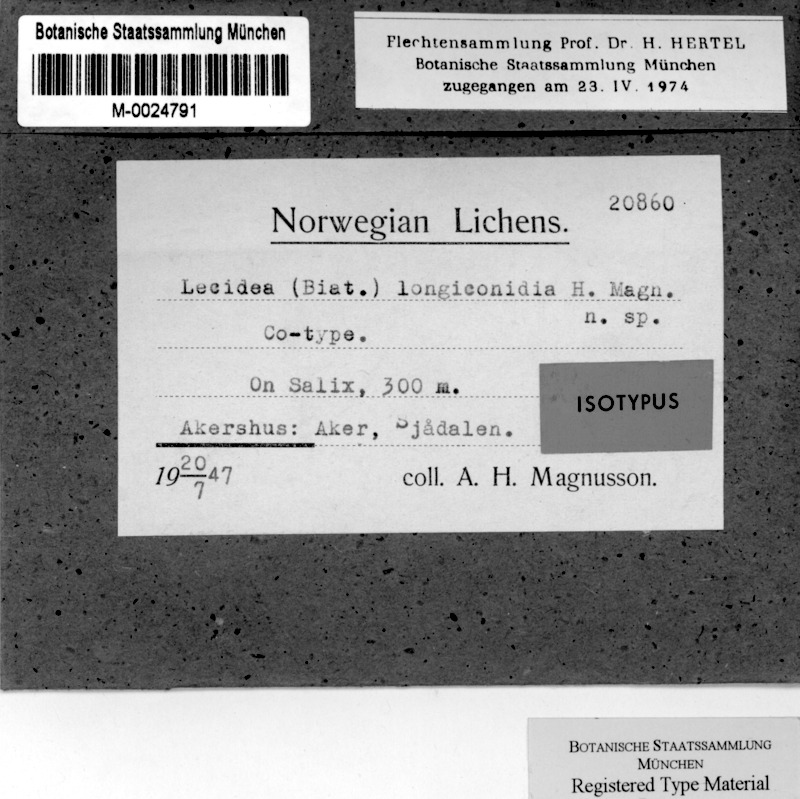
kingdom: Fungi
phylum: Ascomycota
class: Lecanoromycetes
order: Lecideales
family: Lecideaceae
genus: Lecidea
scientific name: Lecidea albohyalina
